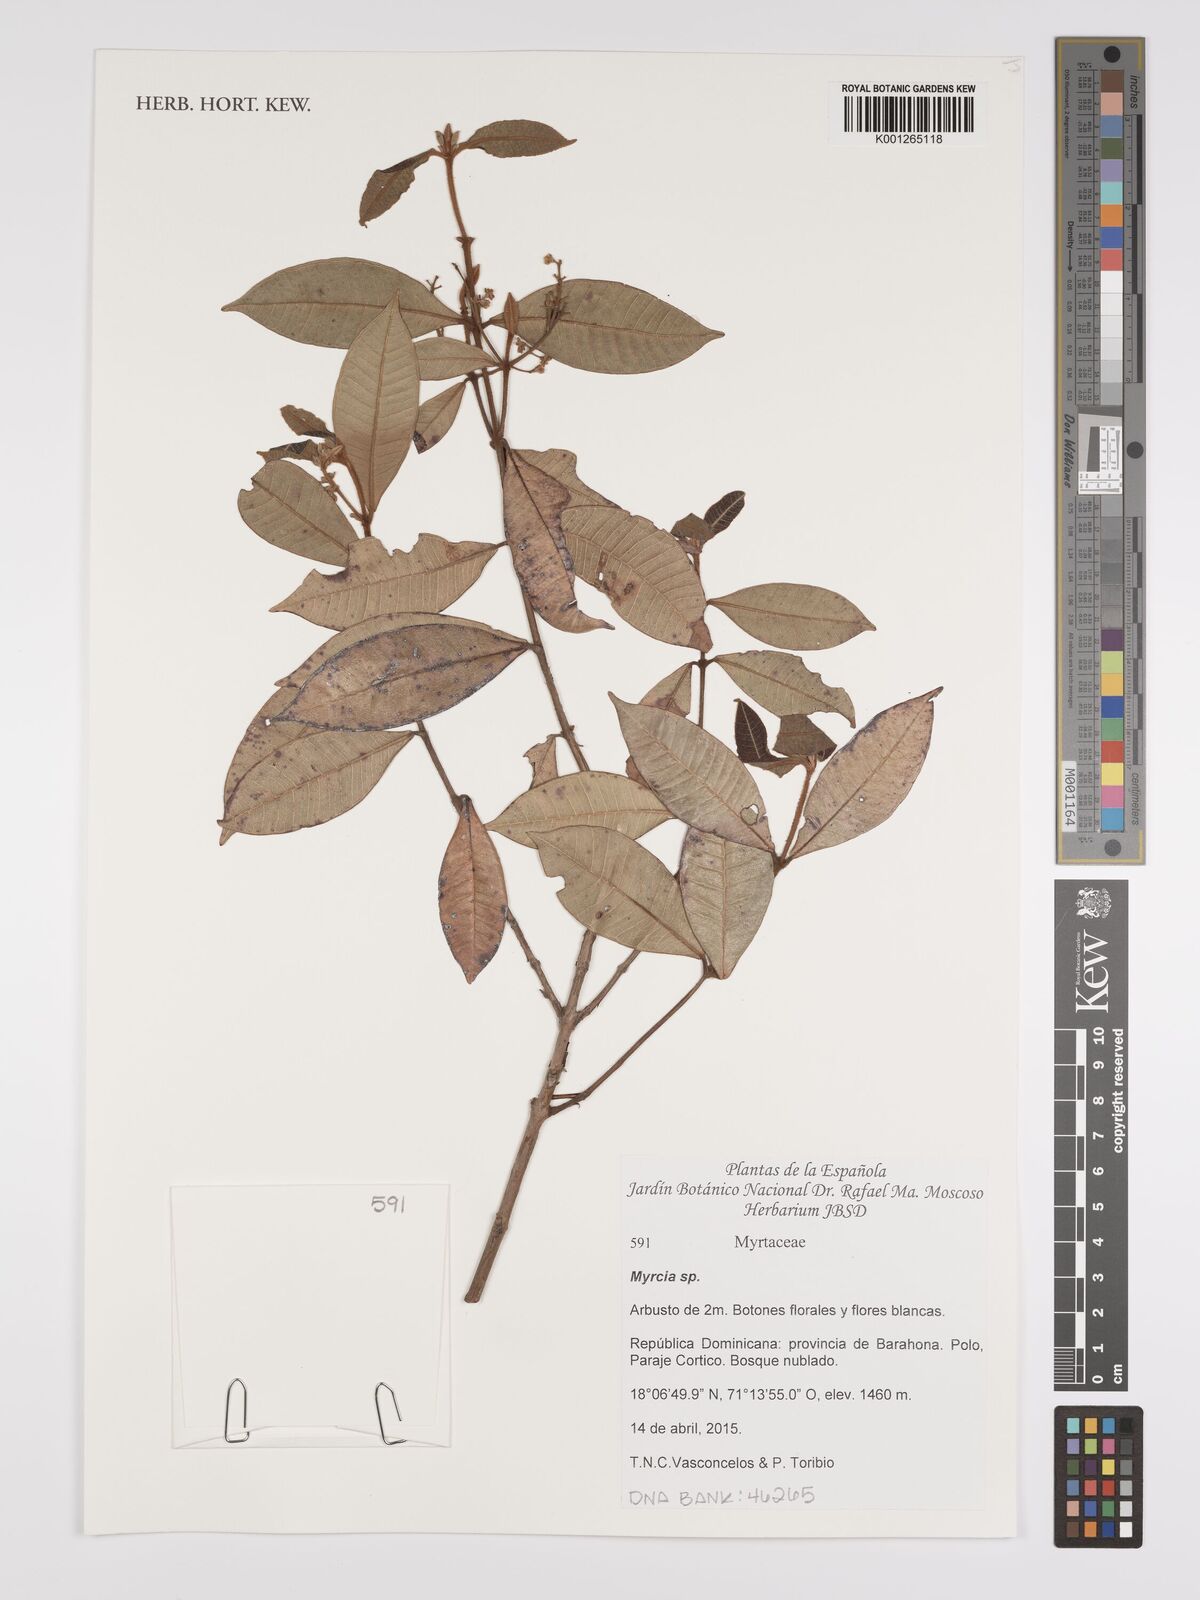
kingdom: Plantae
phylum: Tracheophyta
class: Magnoliopsida
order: Myrtales
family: Myrtaceae
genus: Myrcia
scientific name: Myrcia
